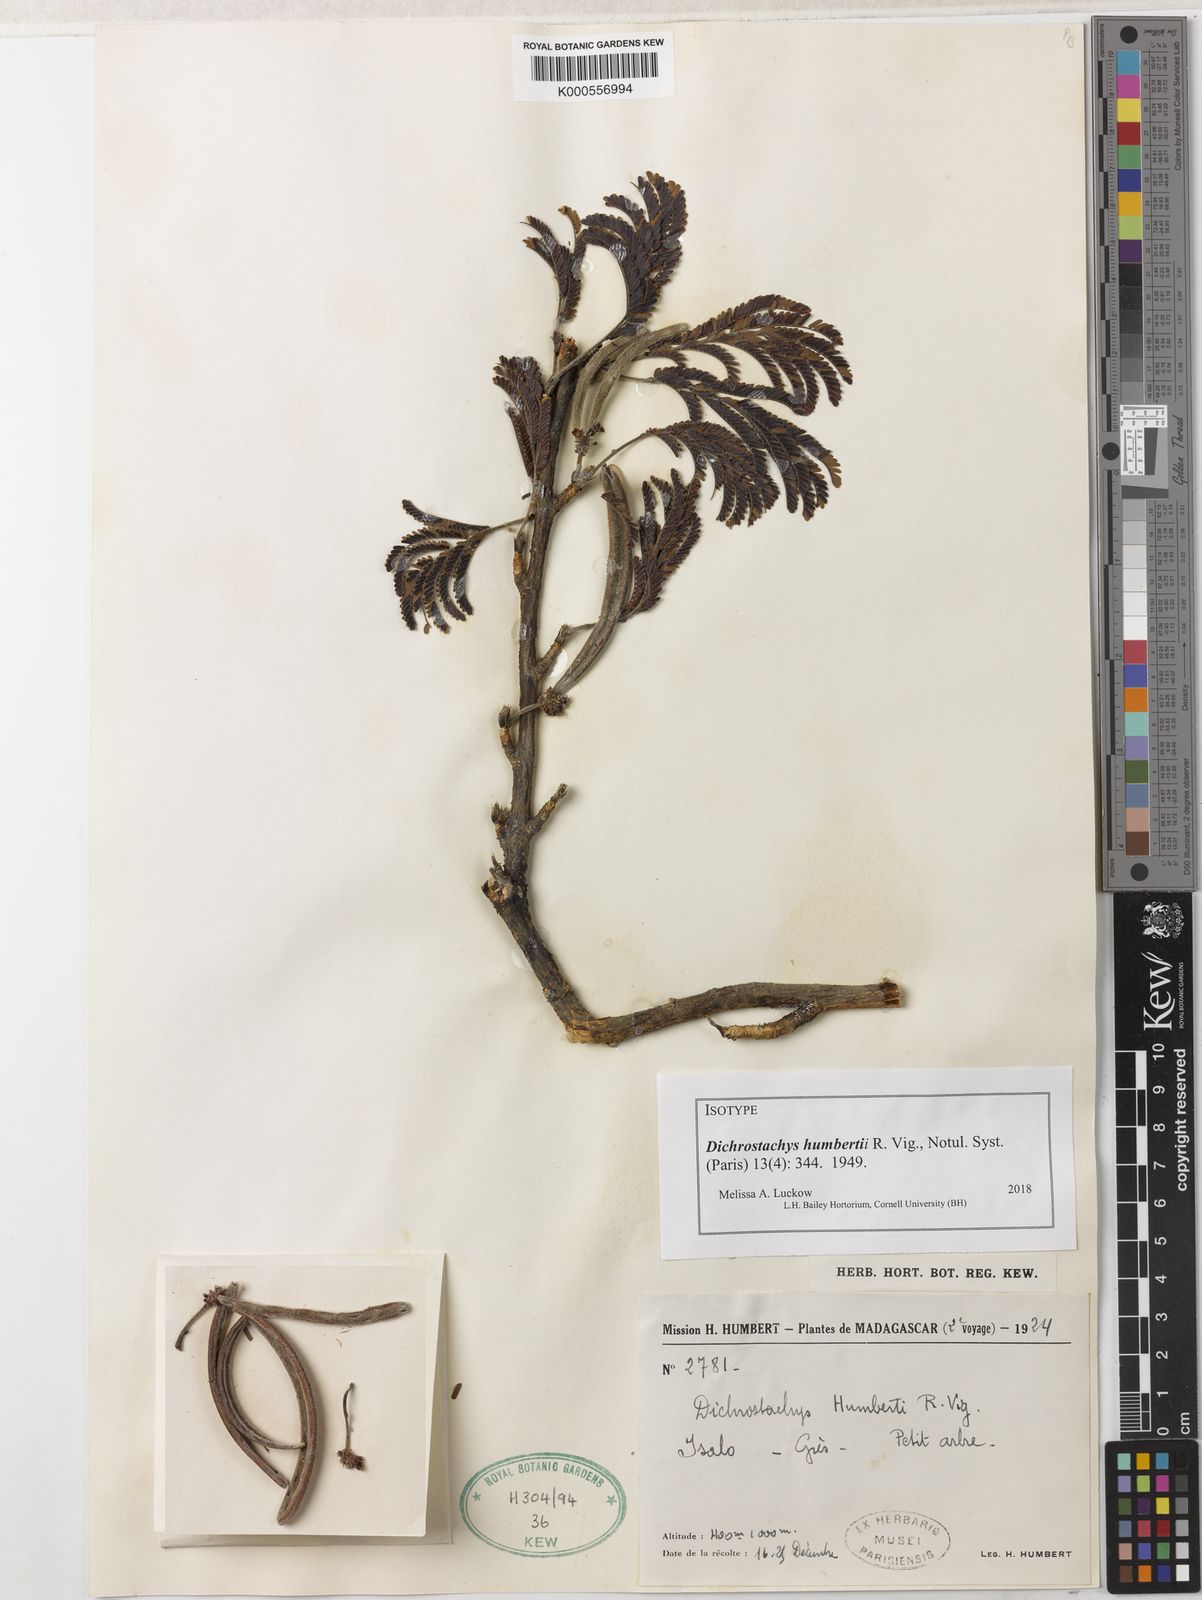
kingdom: Plantae
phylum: Tracheophyta
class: Magnoliopsida
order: Fabales
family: Fabaceae
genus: Alantsilodendron
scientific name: Alantsilodendron humbertii
